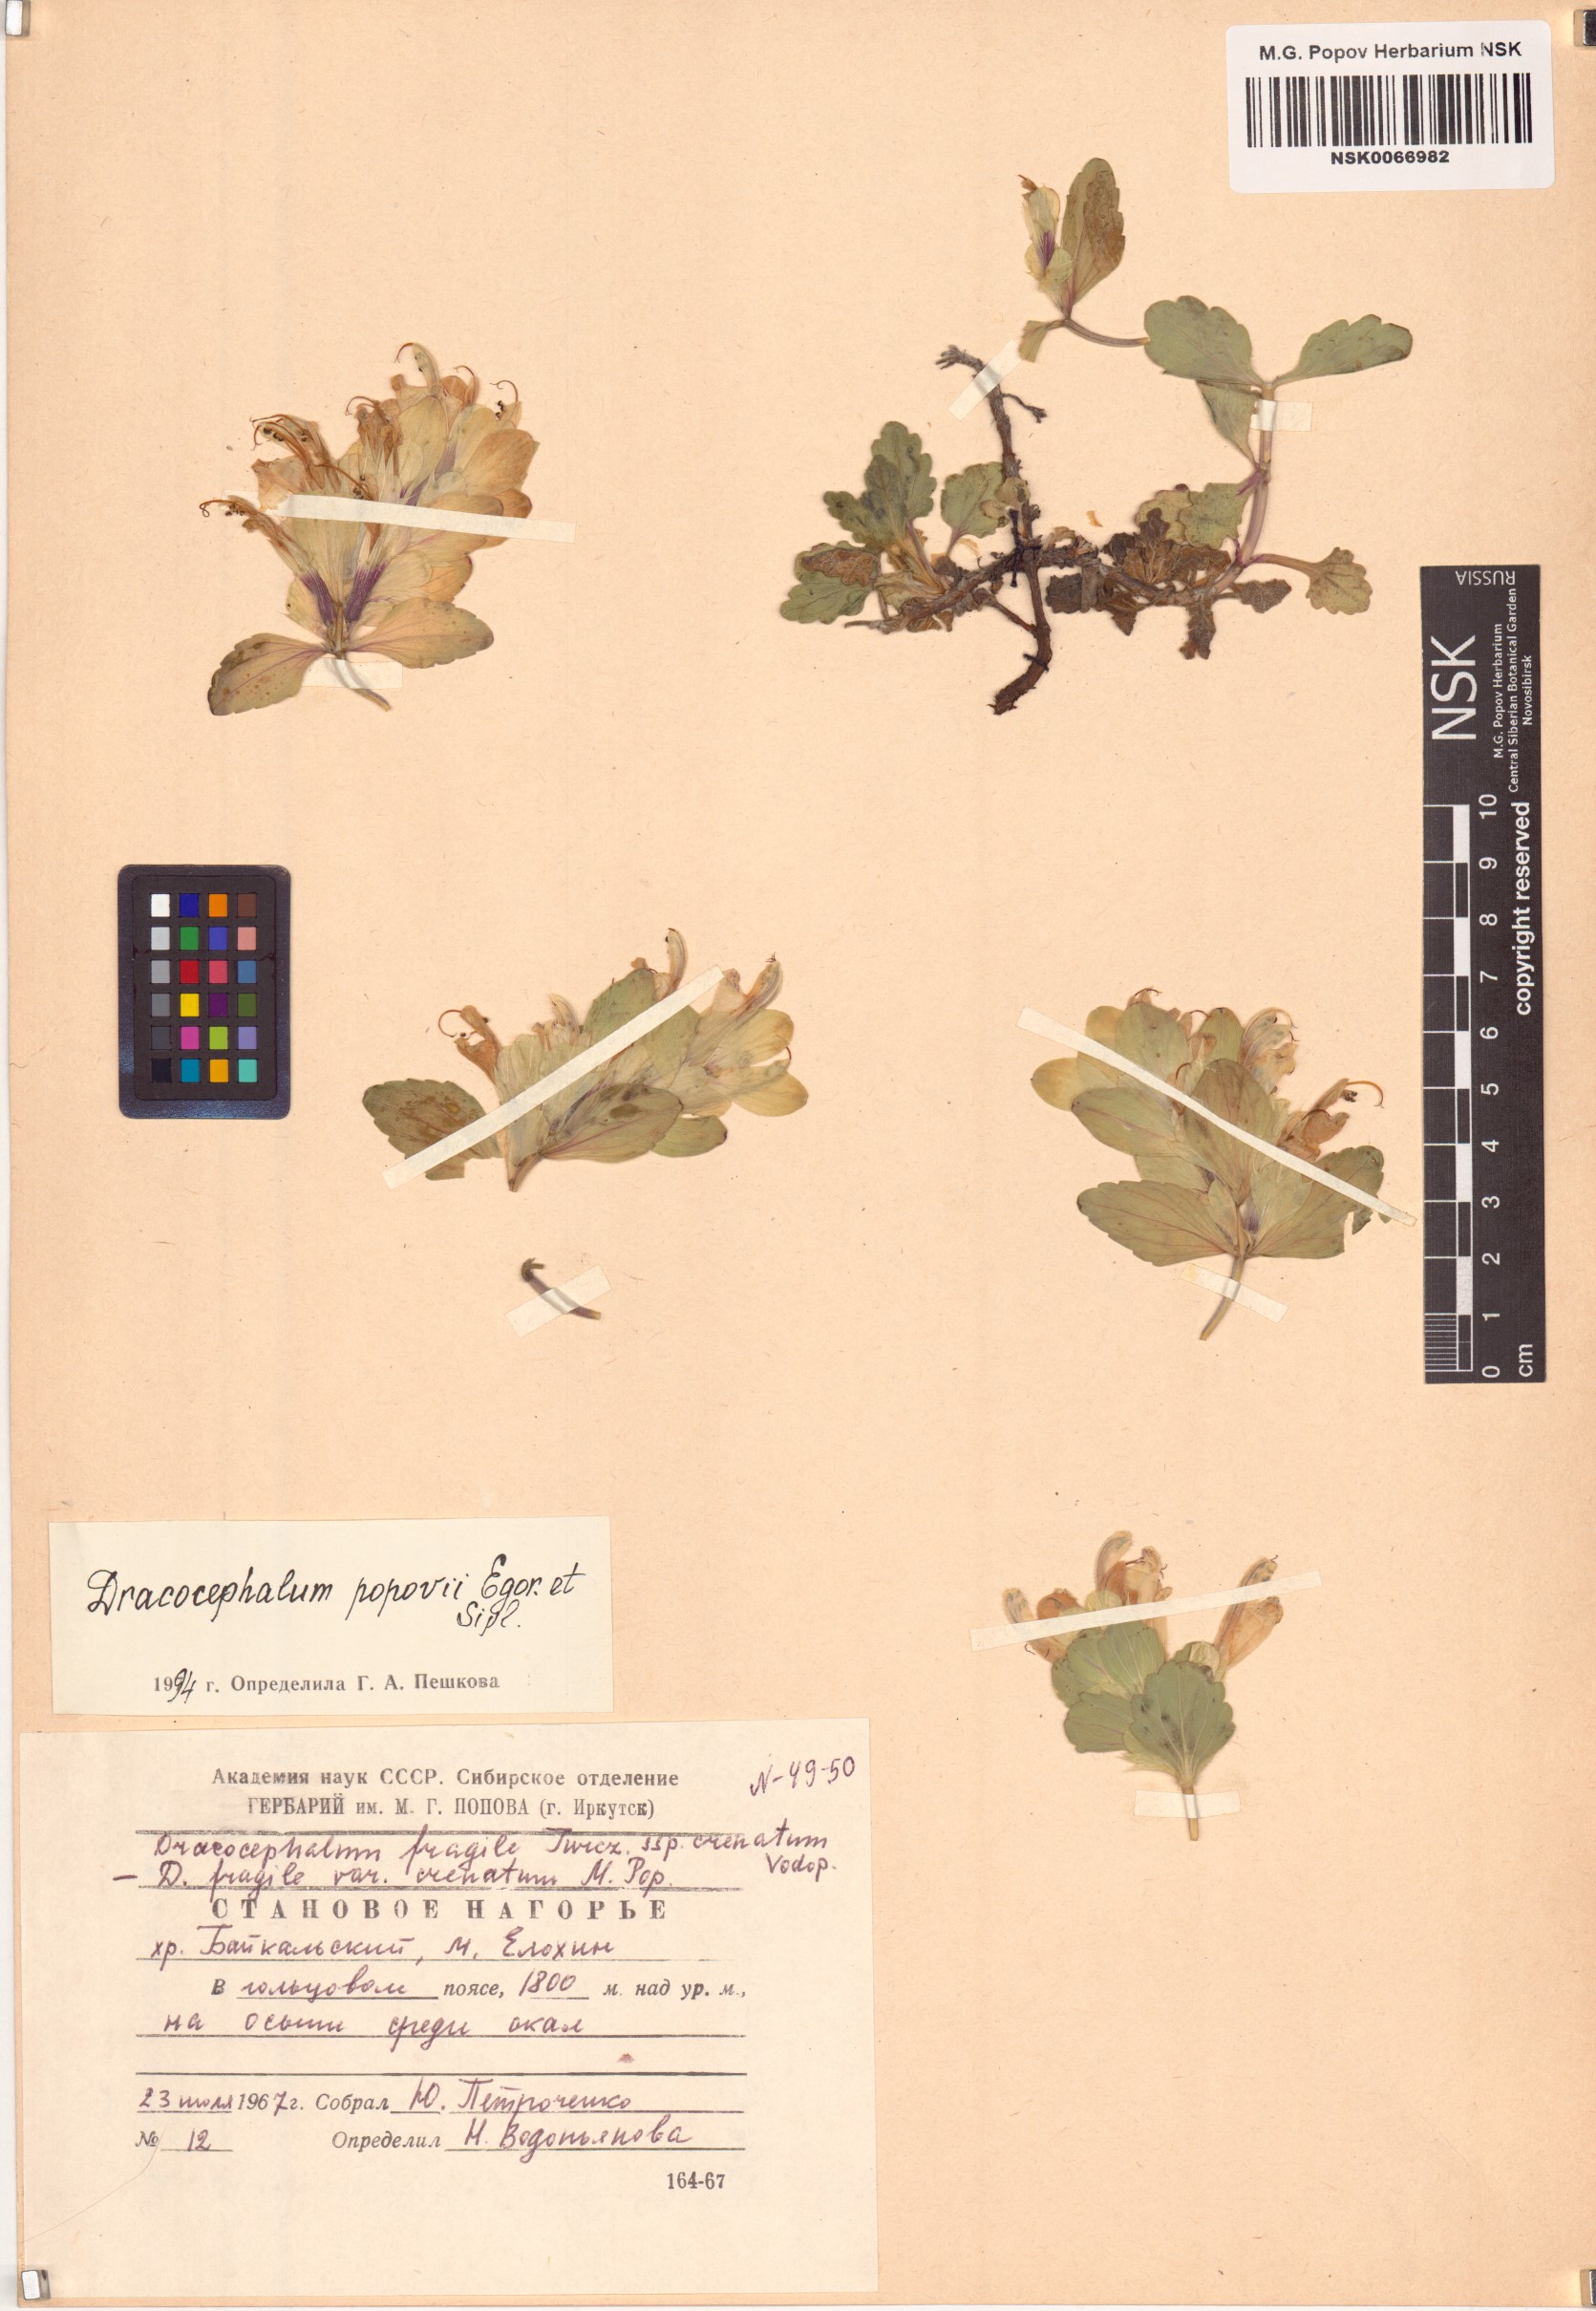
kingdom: Plantae
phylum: Tracheophyta
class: Magnoliopsida
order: Lamiales
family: Lamiaceae
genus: Dracocephalum
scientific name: Dracocephalum popovii
